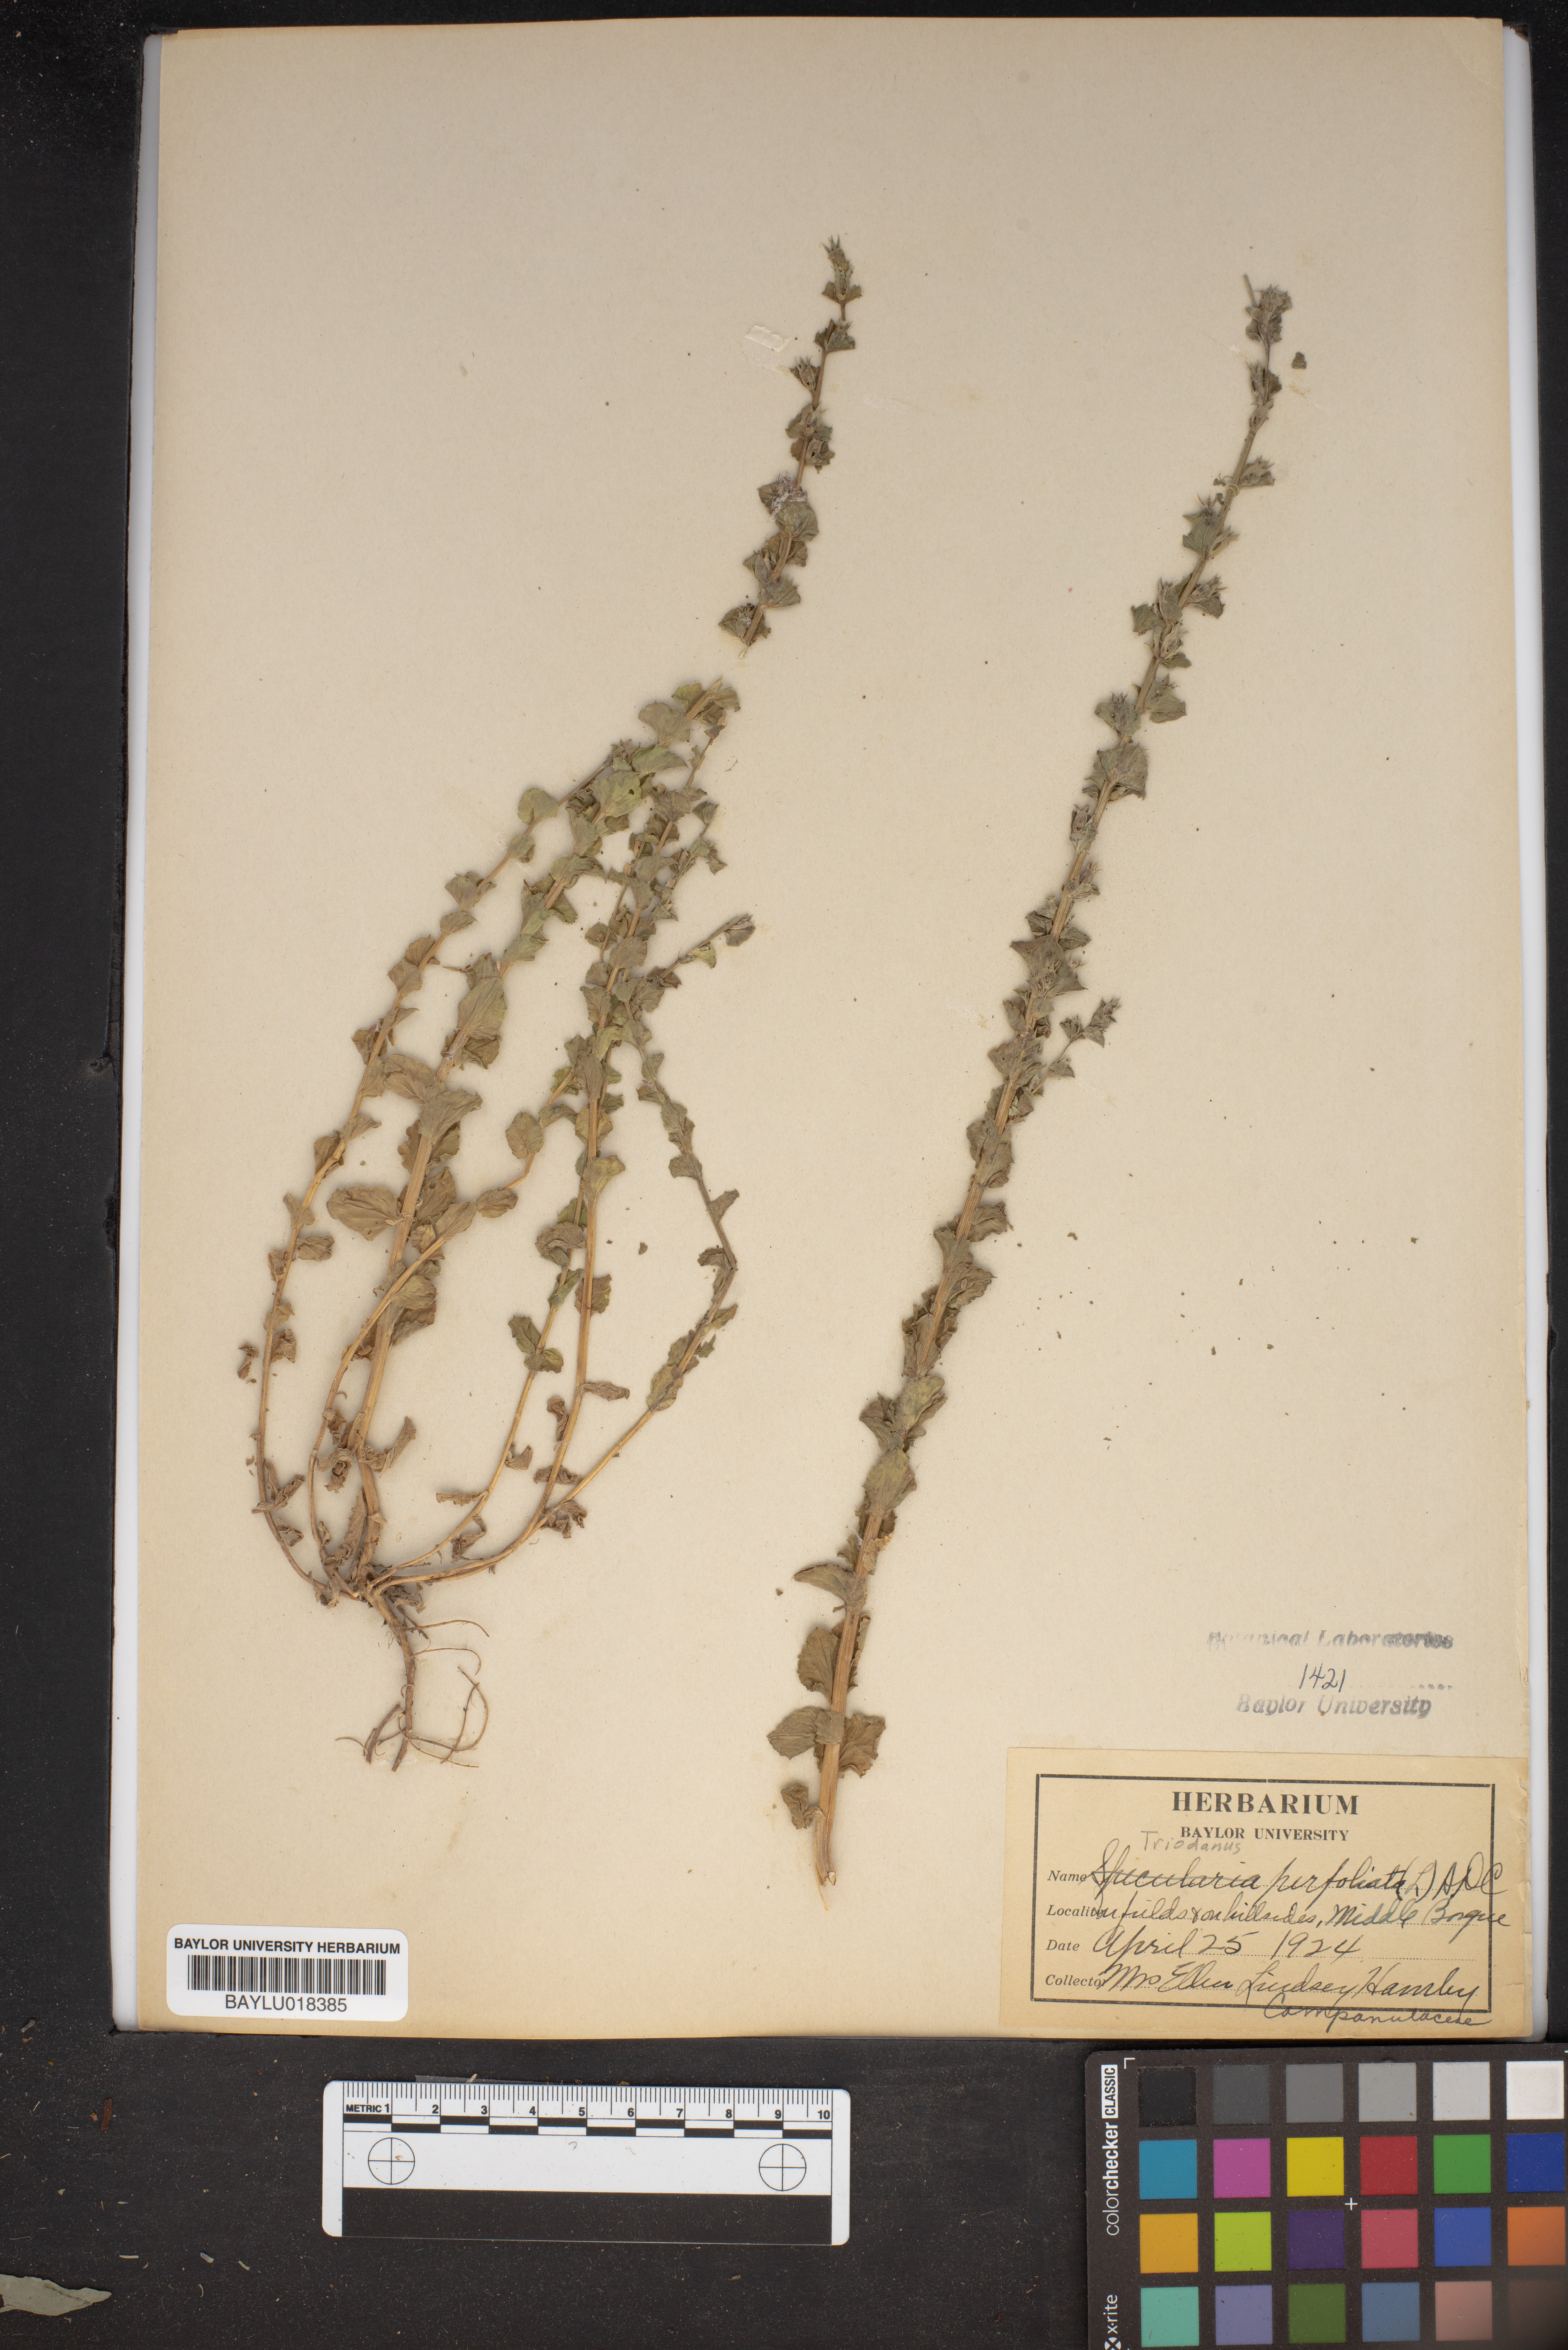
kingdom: Plantae
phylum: Tracheophyta
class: Magnoliopsida
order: Asterales
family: Campanulaceae
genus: Triodanis
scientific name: Triodanis perfoliata
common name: Clasping venus' looking-glass
